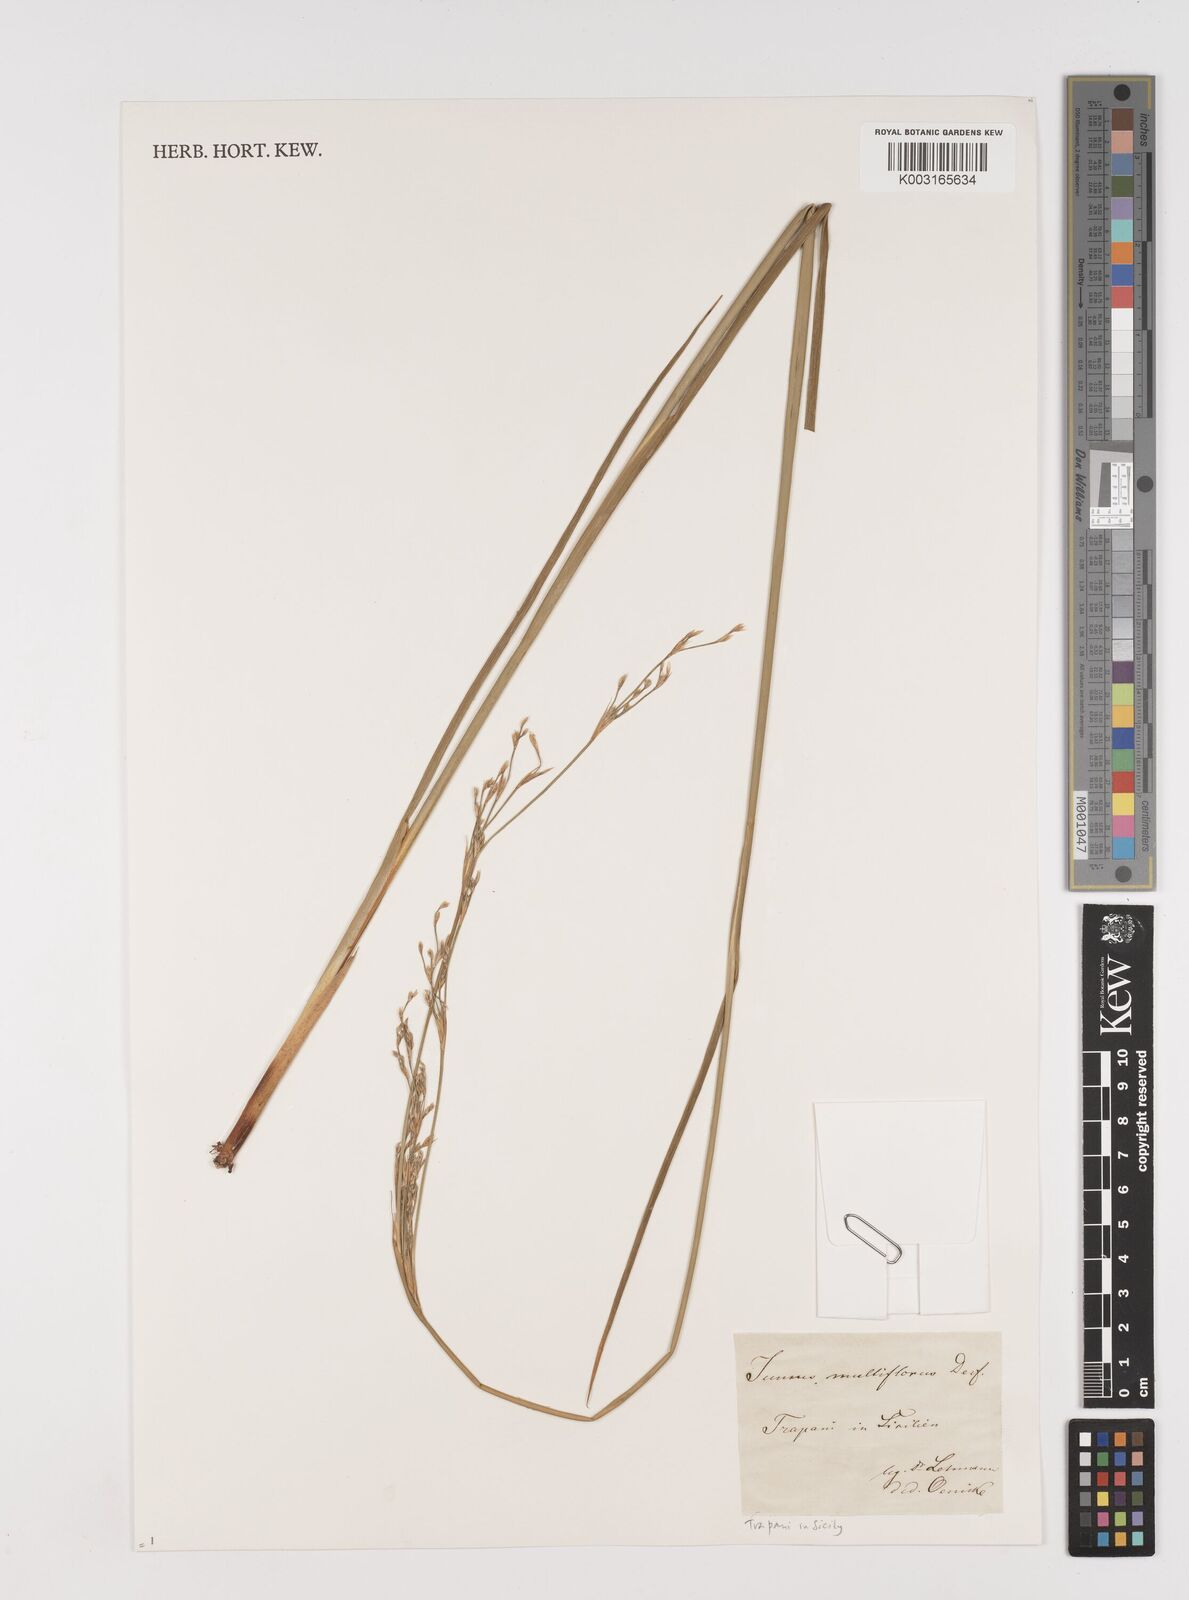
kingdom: Plantae
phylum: Tracheophyta
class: Liliopsida
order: Poales
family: Juncaceae
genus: Juncus
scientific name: Juncus subulatus
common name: Somerset rush
